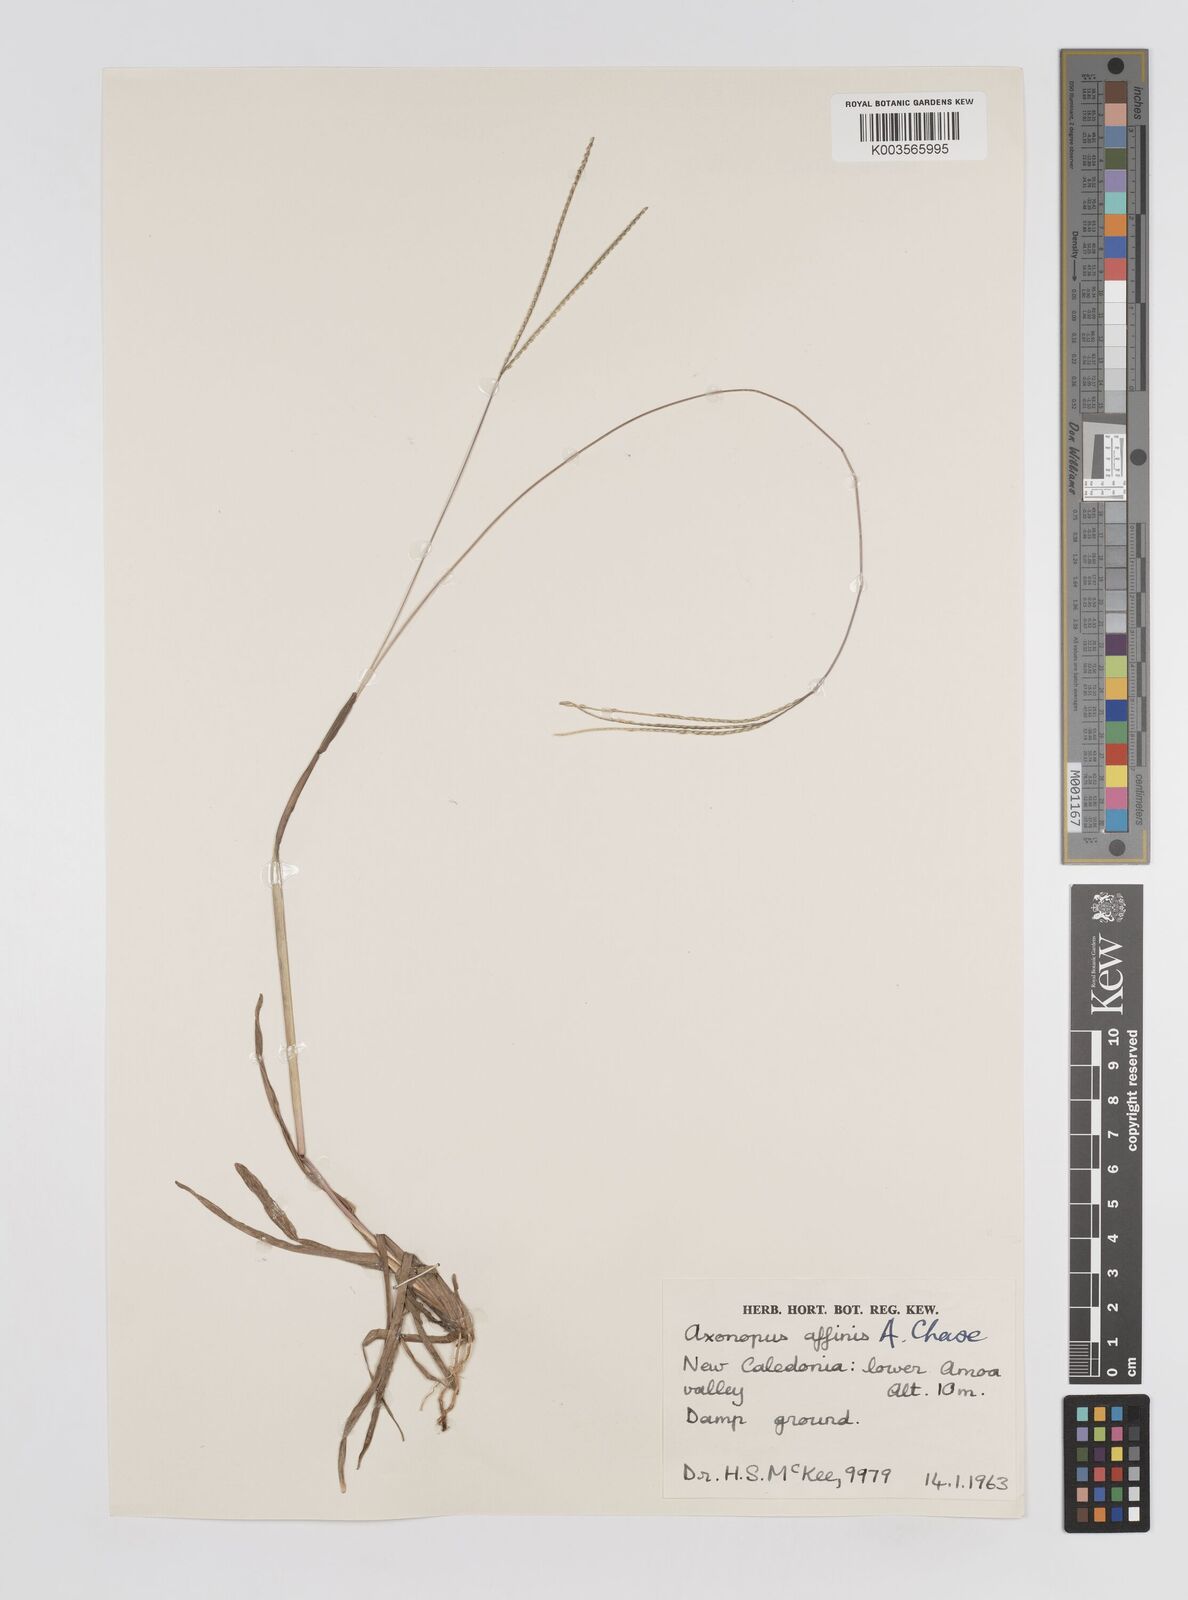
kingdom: Plantae
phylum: Tracheophyta
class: Liliopsida
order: Poales
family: Poaceae
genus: Axonopus
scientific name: Axonopus fissifolius
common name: Common carpetgrass
